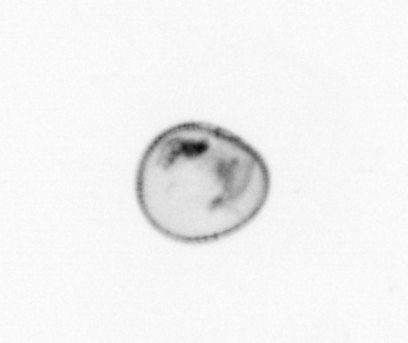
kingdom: Chromista
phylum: Myzozoa
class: Dinophyceae
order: Noctilucales
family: Noctilucaceae
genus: Noctiluca
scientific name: Noctiluca scintillans
